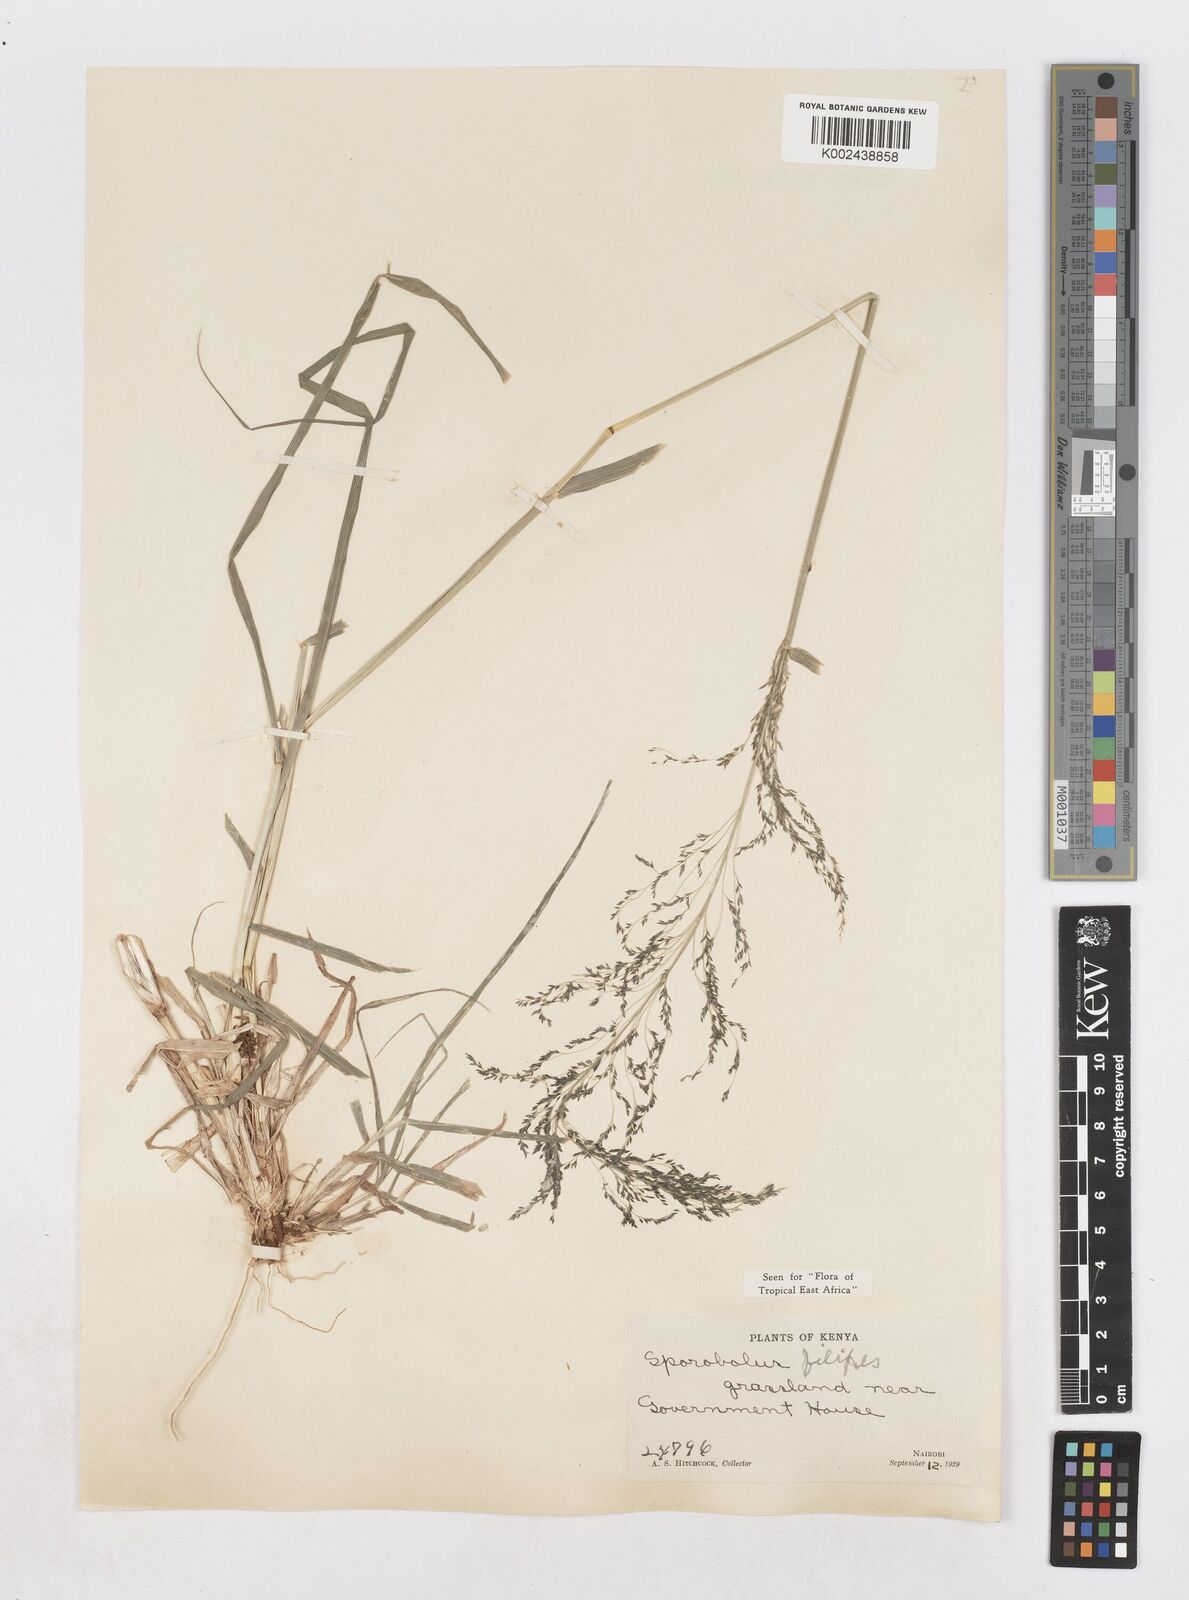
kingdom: Plantae
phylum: Tracheophyta
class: Liliopsida
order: Poales
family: Poaceae
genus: Sporobolus
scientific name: Sporobolus agrostoides
